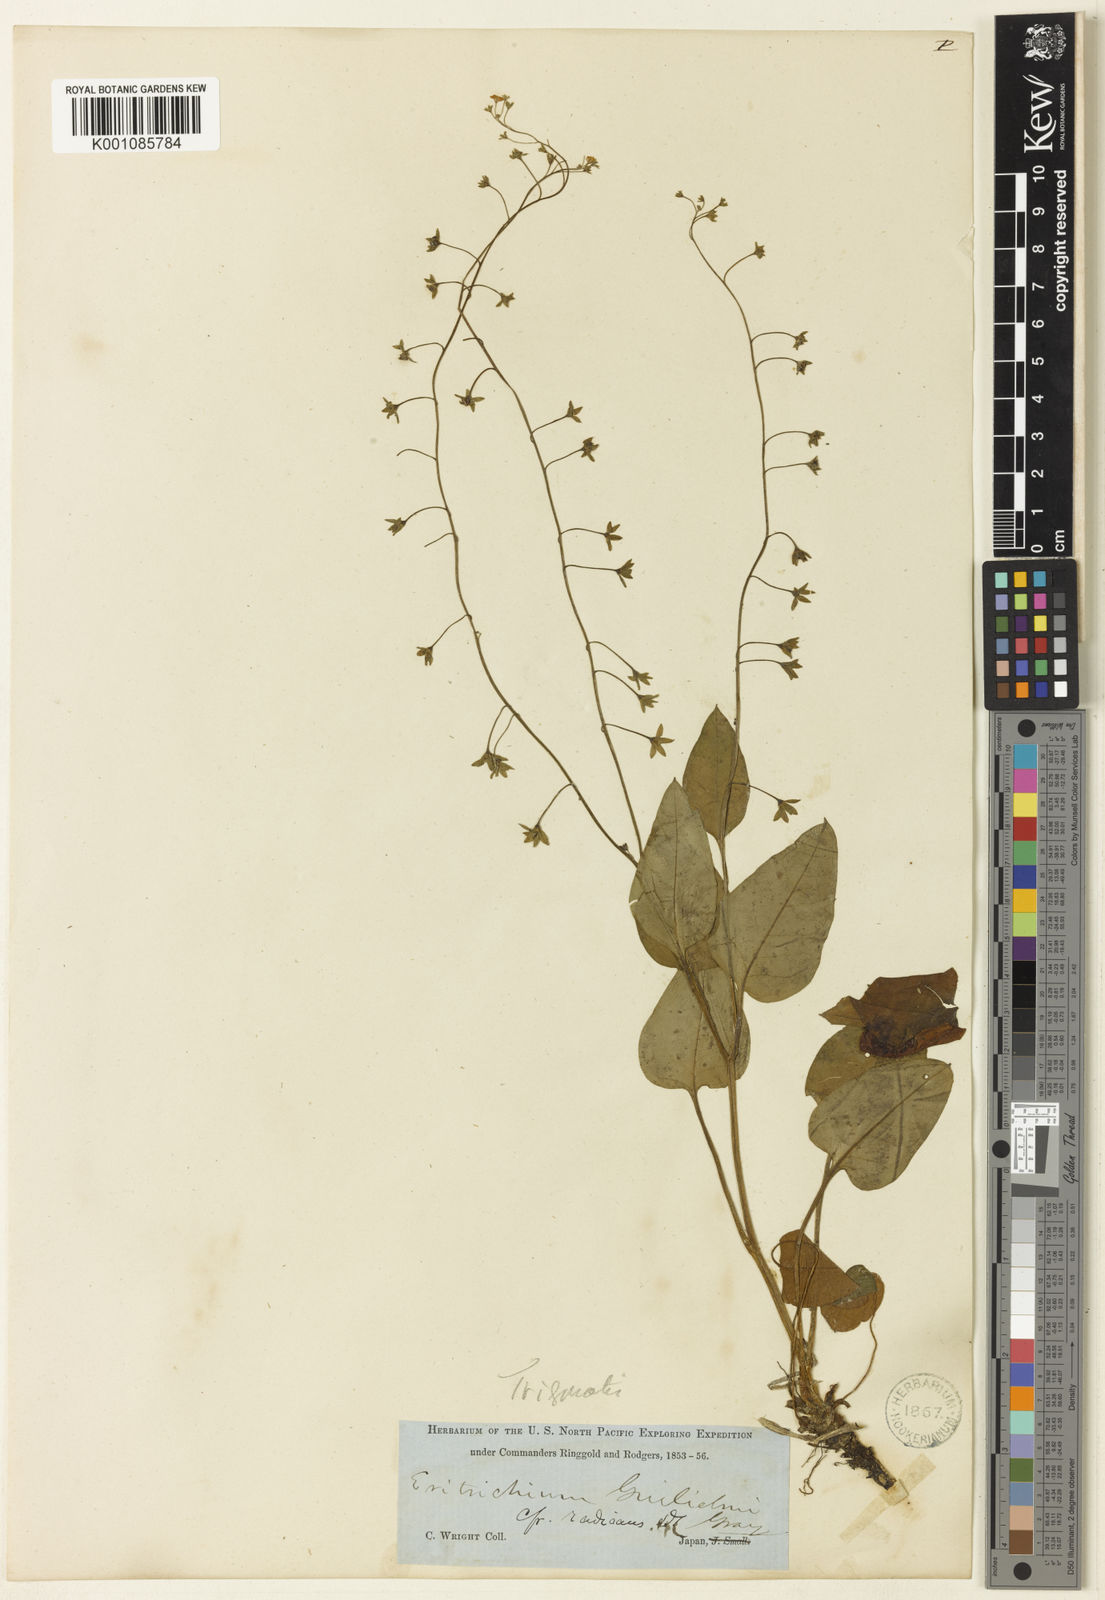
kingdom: Plantae
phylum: Tracheophyta
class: Magnoliopsida
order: Boraginales
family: Boraginaceae
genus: Trigonotis
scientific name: Trigonotis
